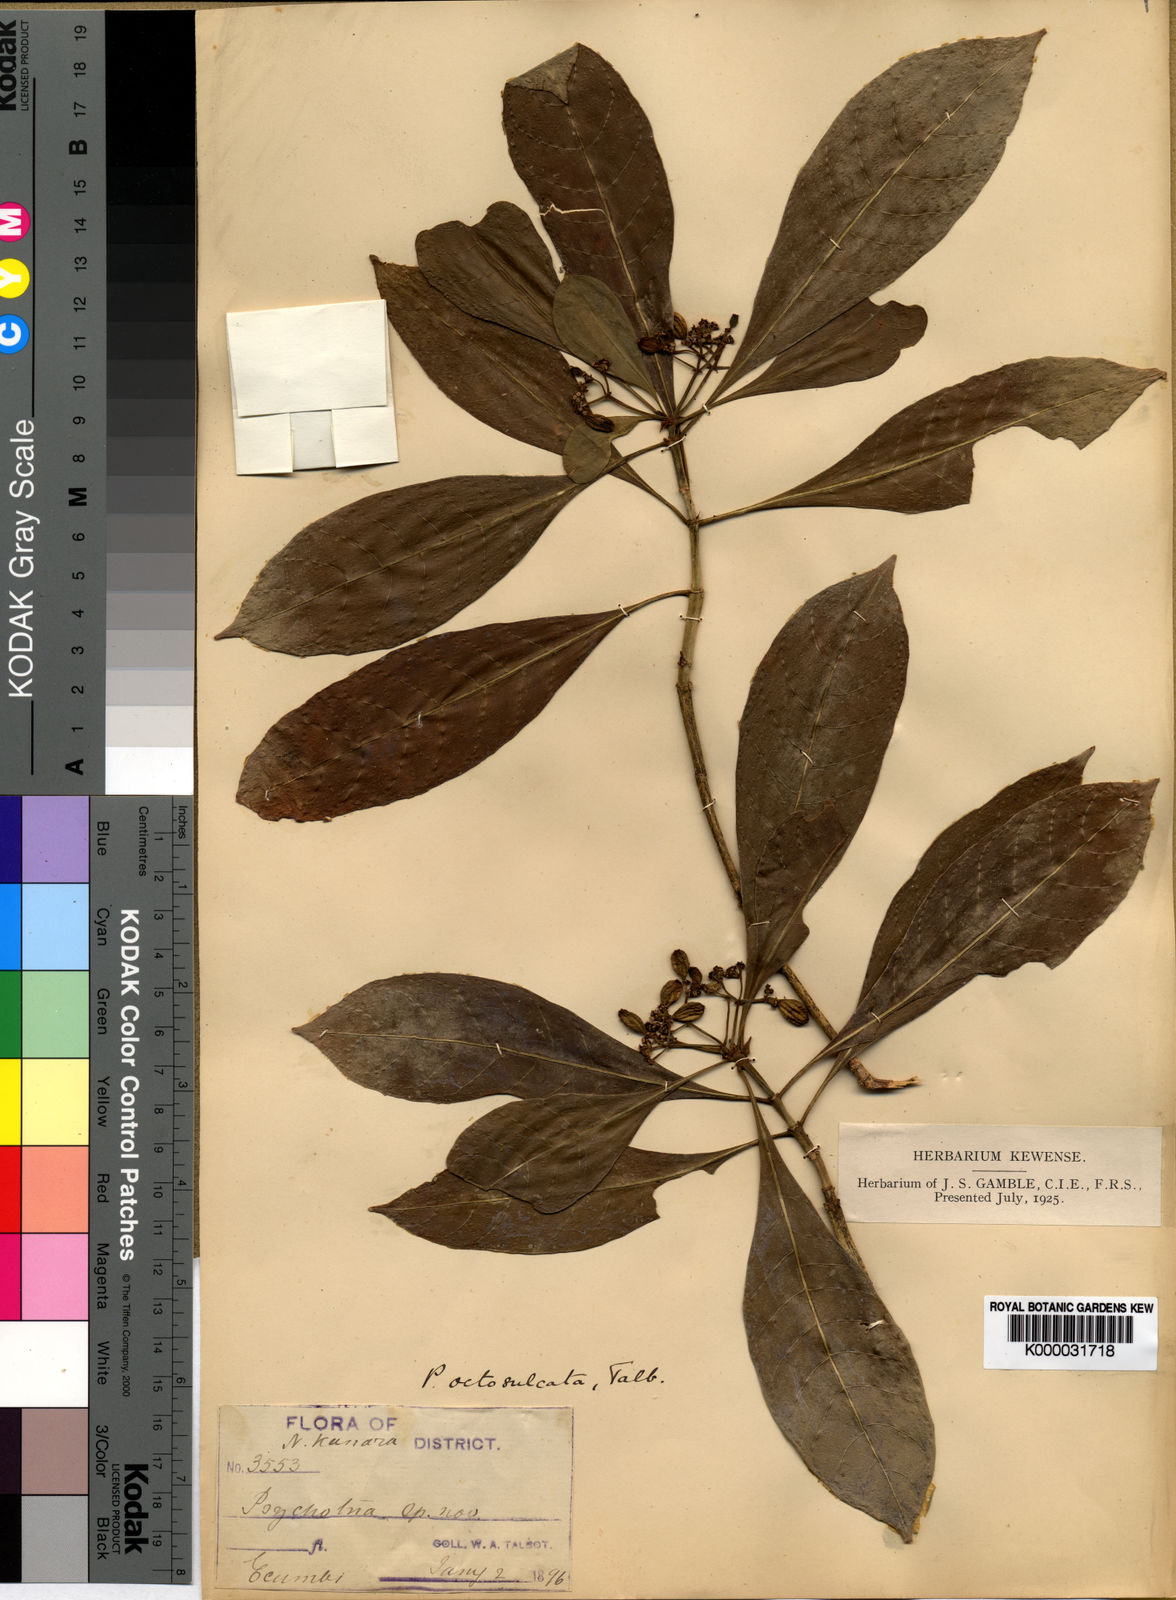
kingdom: Plantae
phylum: Tracheophyta
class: Magnoliopsida
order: Gentianales
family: Rubiaceae
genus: Psychotria
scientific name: Psychotria octosulcata
